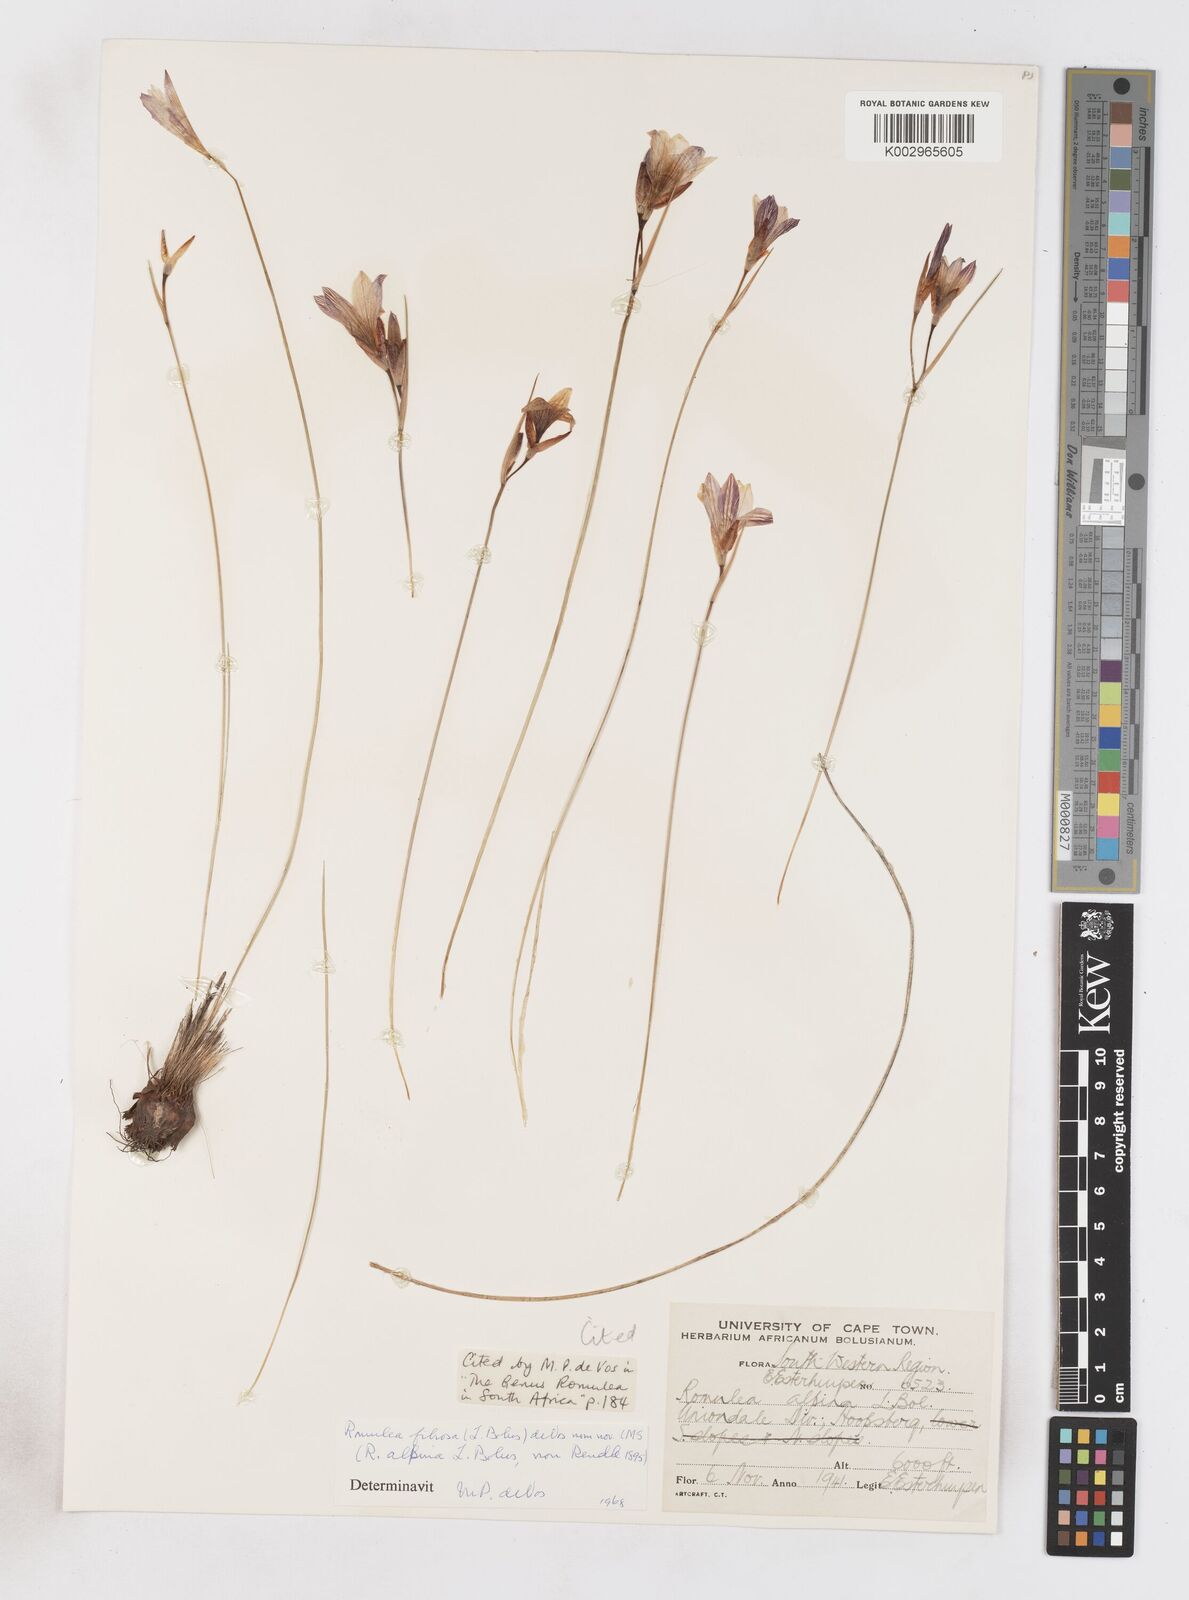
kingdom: Plantae
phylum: Tracheophyta
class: Liliopsida
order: Asparagales
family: Iridaceae
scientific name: Iridaceae
